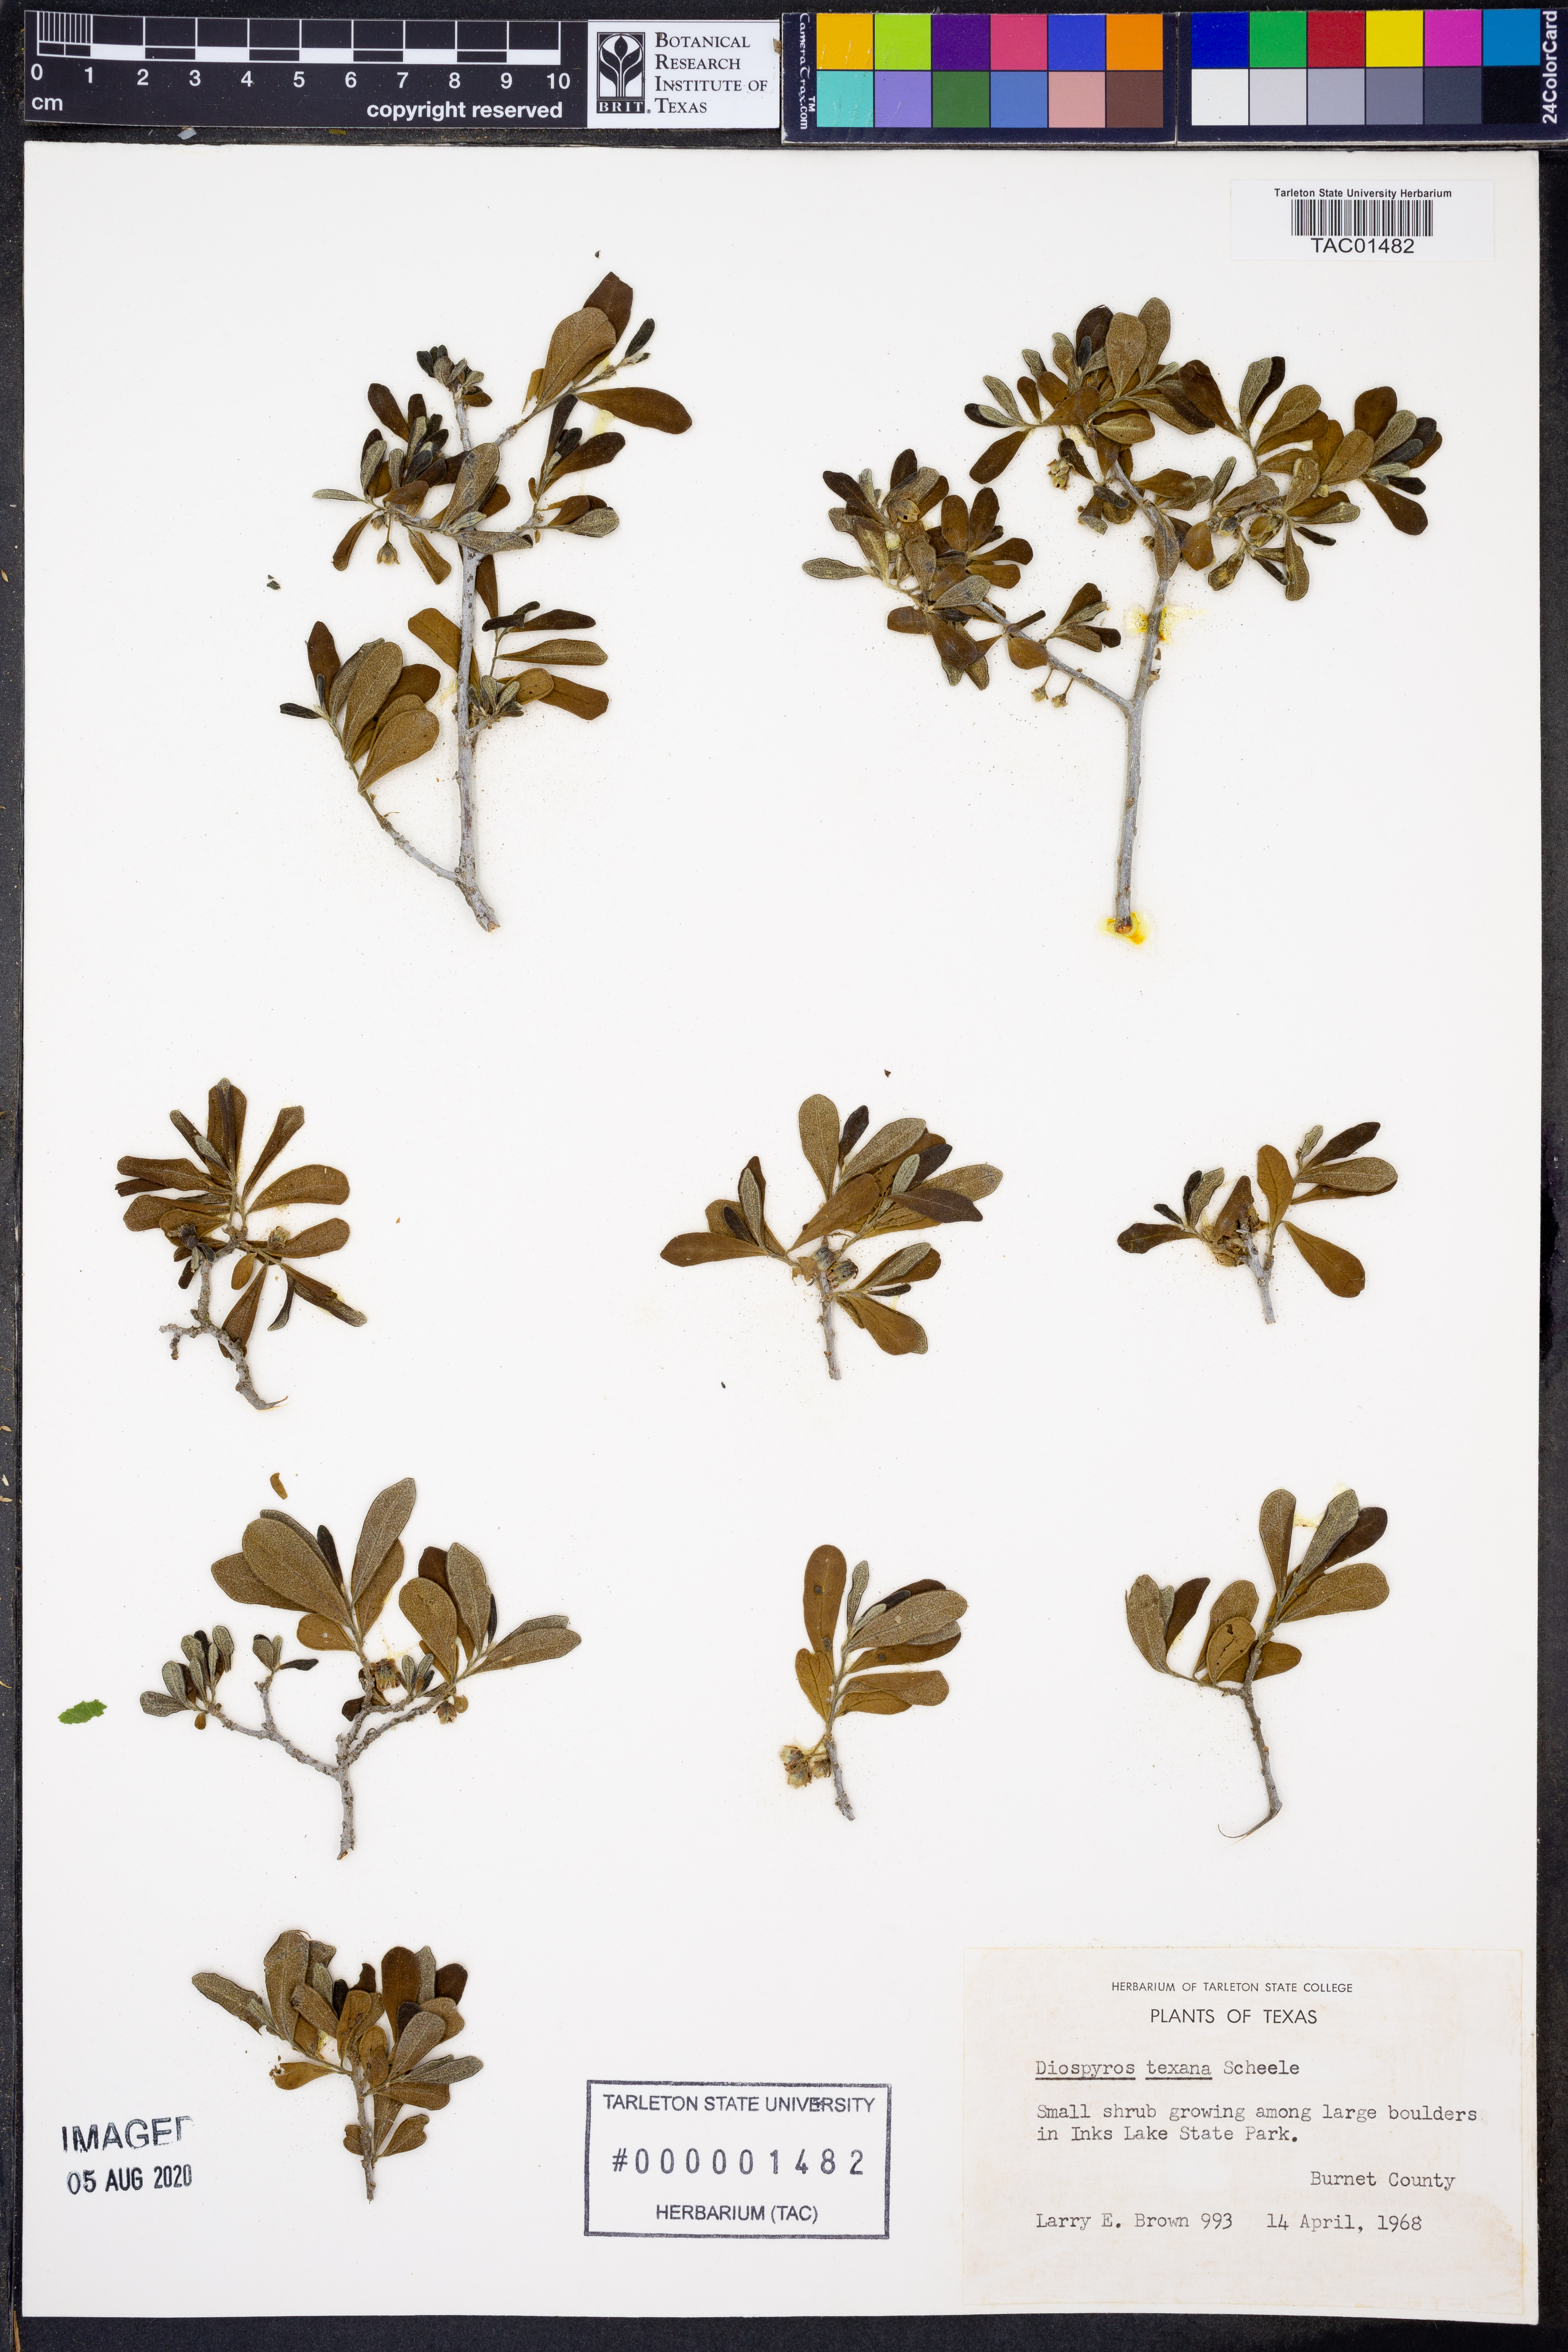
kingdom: Plantae
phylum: Tracheophyta
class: Magnoliopsida
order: Ericales
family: Ebenaceae
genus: Diospyros
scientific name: Diospyros texana
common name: Texas persimmon
